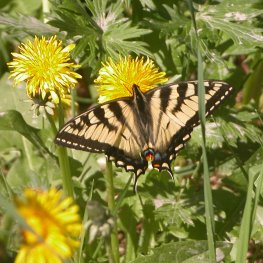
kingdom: Animalia
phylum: Arthropoda
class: Insecta
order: Lepidoptera
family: Papilionidae
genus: Pterourus
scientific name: Pterourus canadensis
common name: Canadian Tiger Swallowtail
